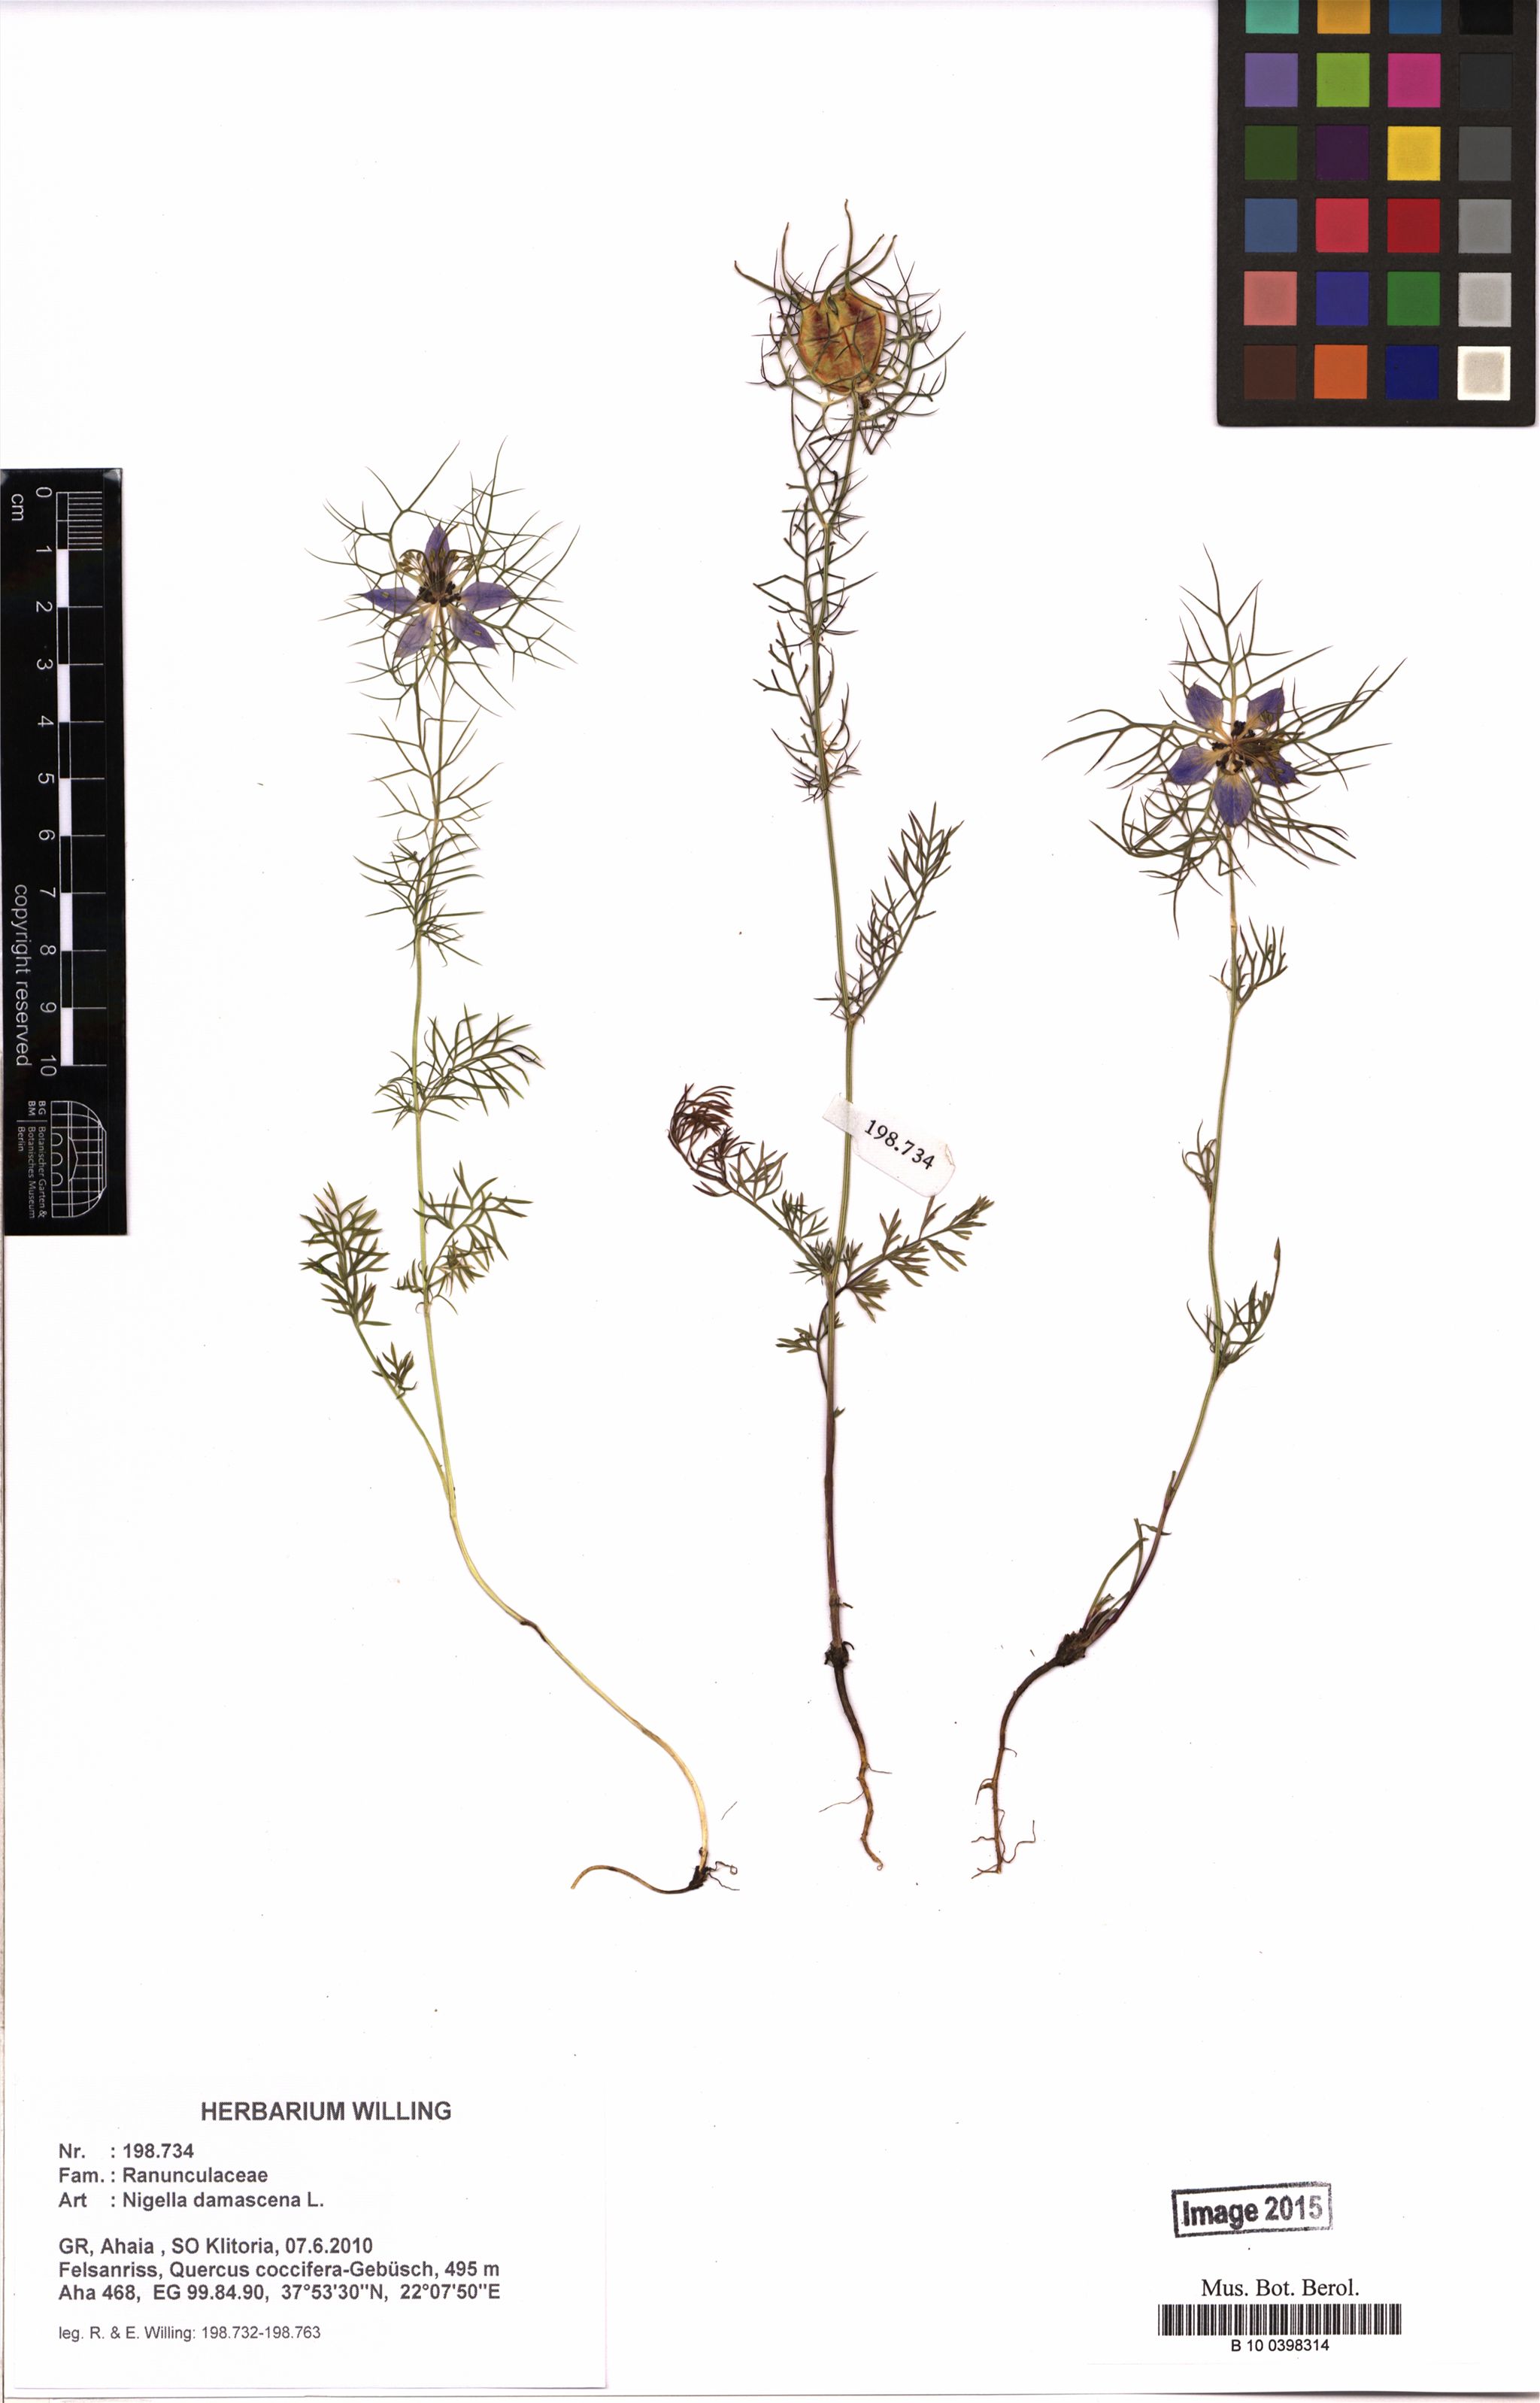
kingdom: Plantae
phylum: Tracheophyta
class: Magnoliopsida
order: Ranunculales
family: Ranunculaceae
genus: Nigella
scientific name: Nigella damascena
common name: Love-in-a-mist
